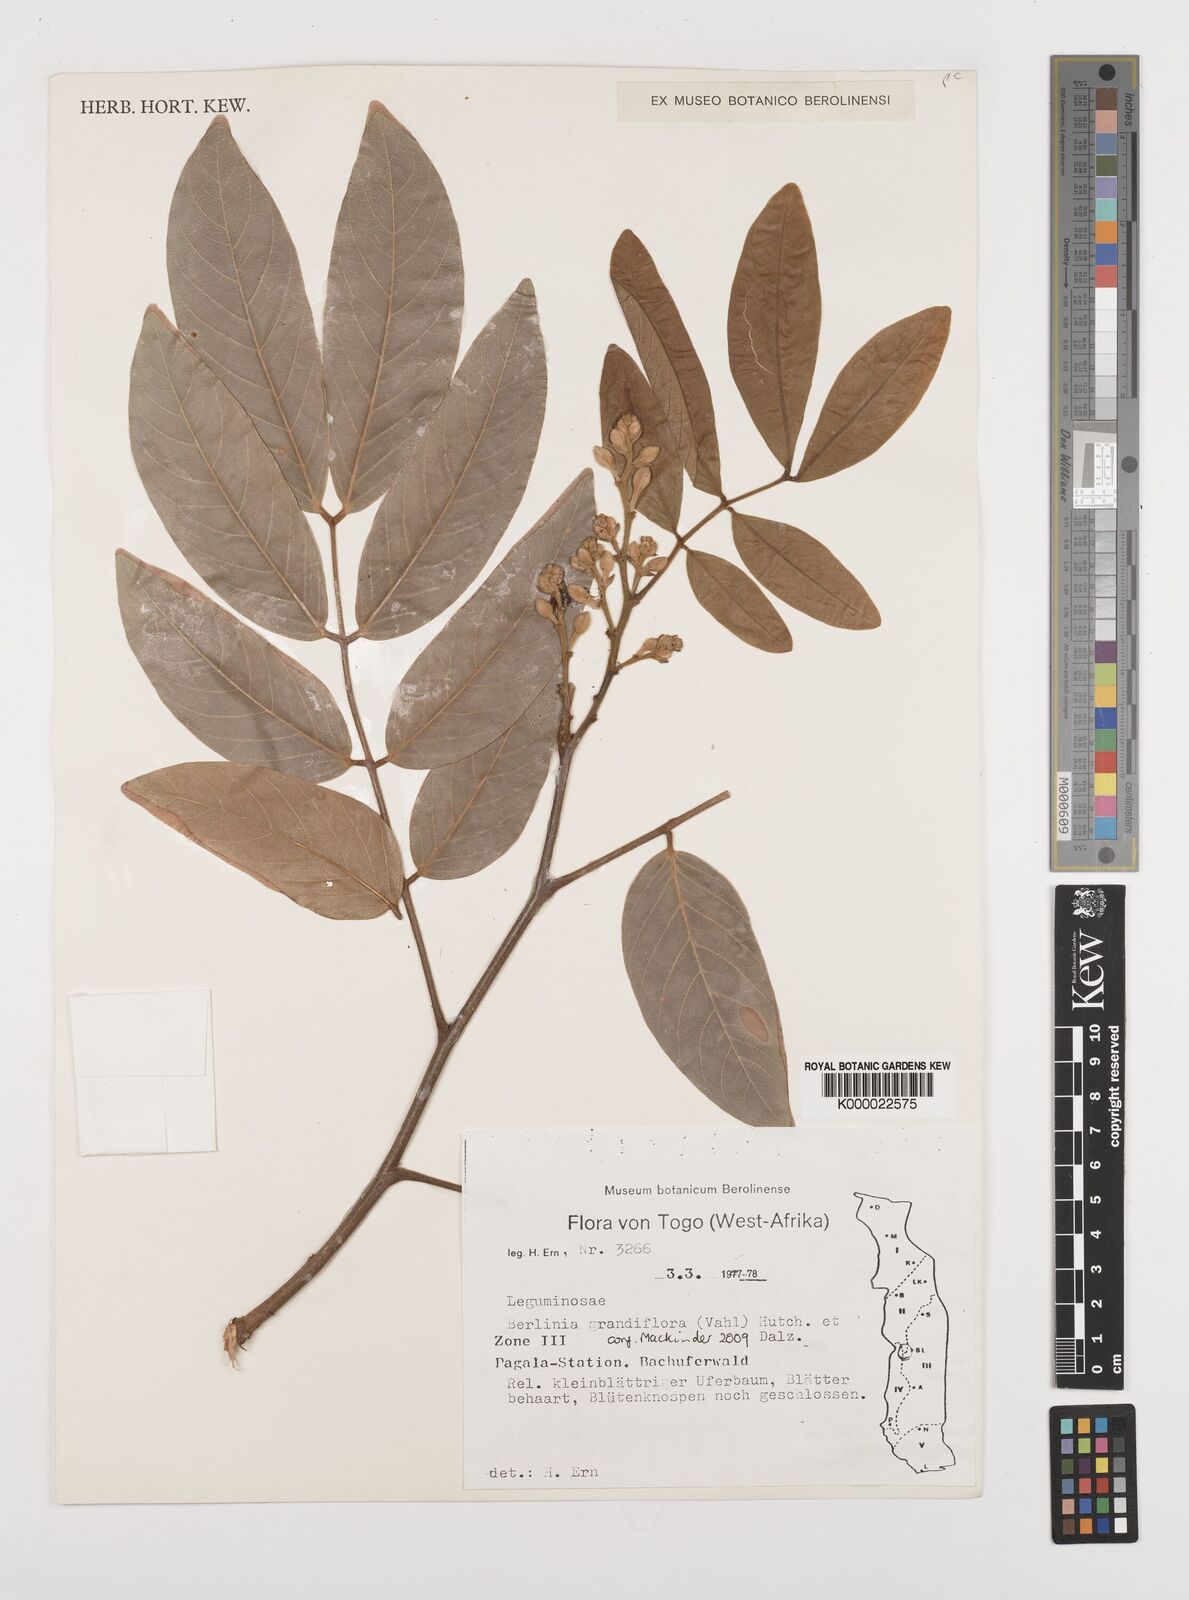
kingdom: Plantae
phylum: Tracheophyta
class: Magnoliopsida
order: Fabales
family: Fabaceae
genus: Isoberlinia
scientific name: Isoberlinia tomentosa
